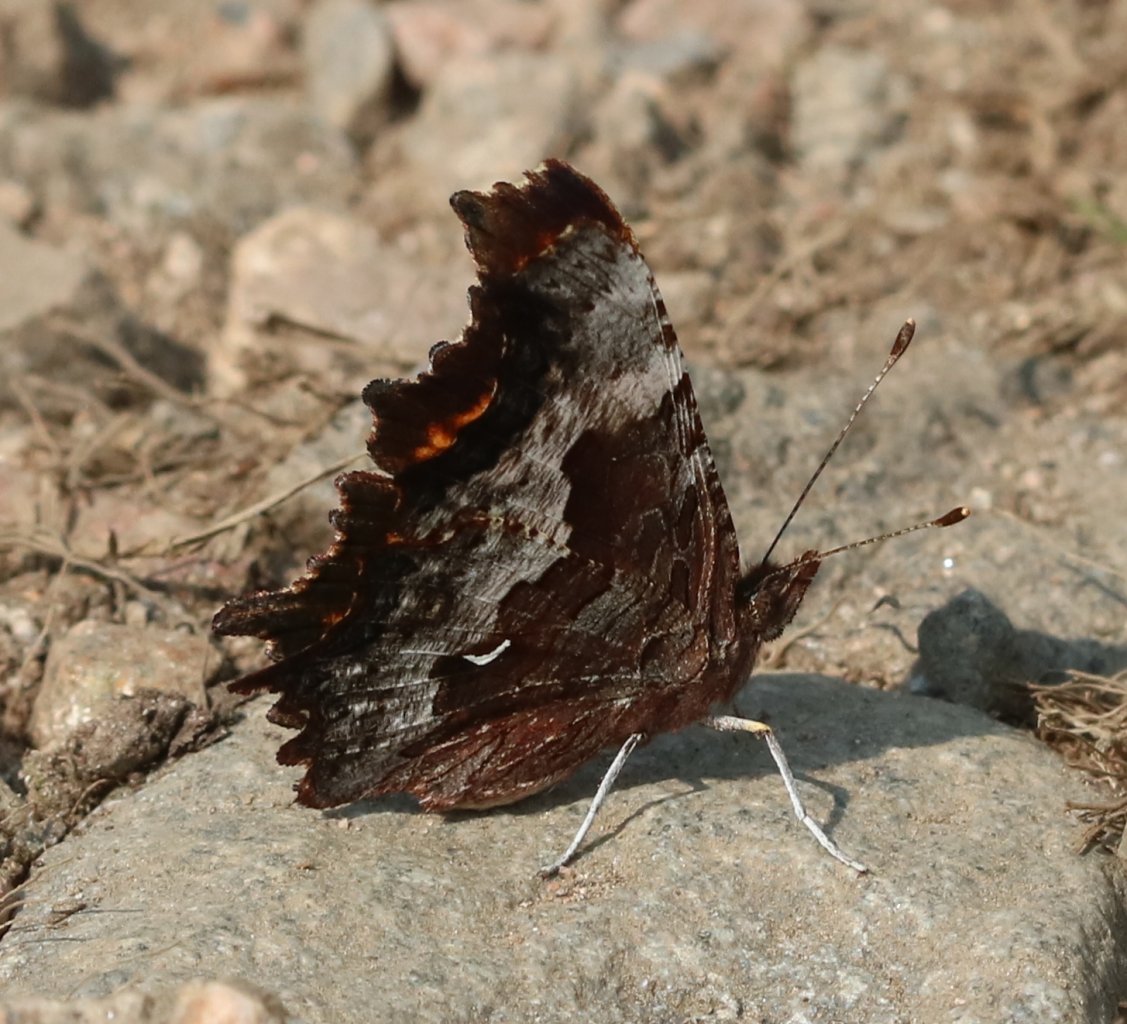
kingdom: Animalia
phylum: Arthropoda
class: Insecta
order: Lepidoptera
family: Nymphalidae
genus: Polygonia
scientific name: Polygonia gracilis
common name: Hoary Comma
